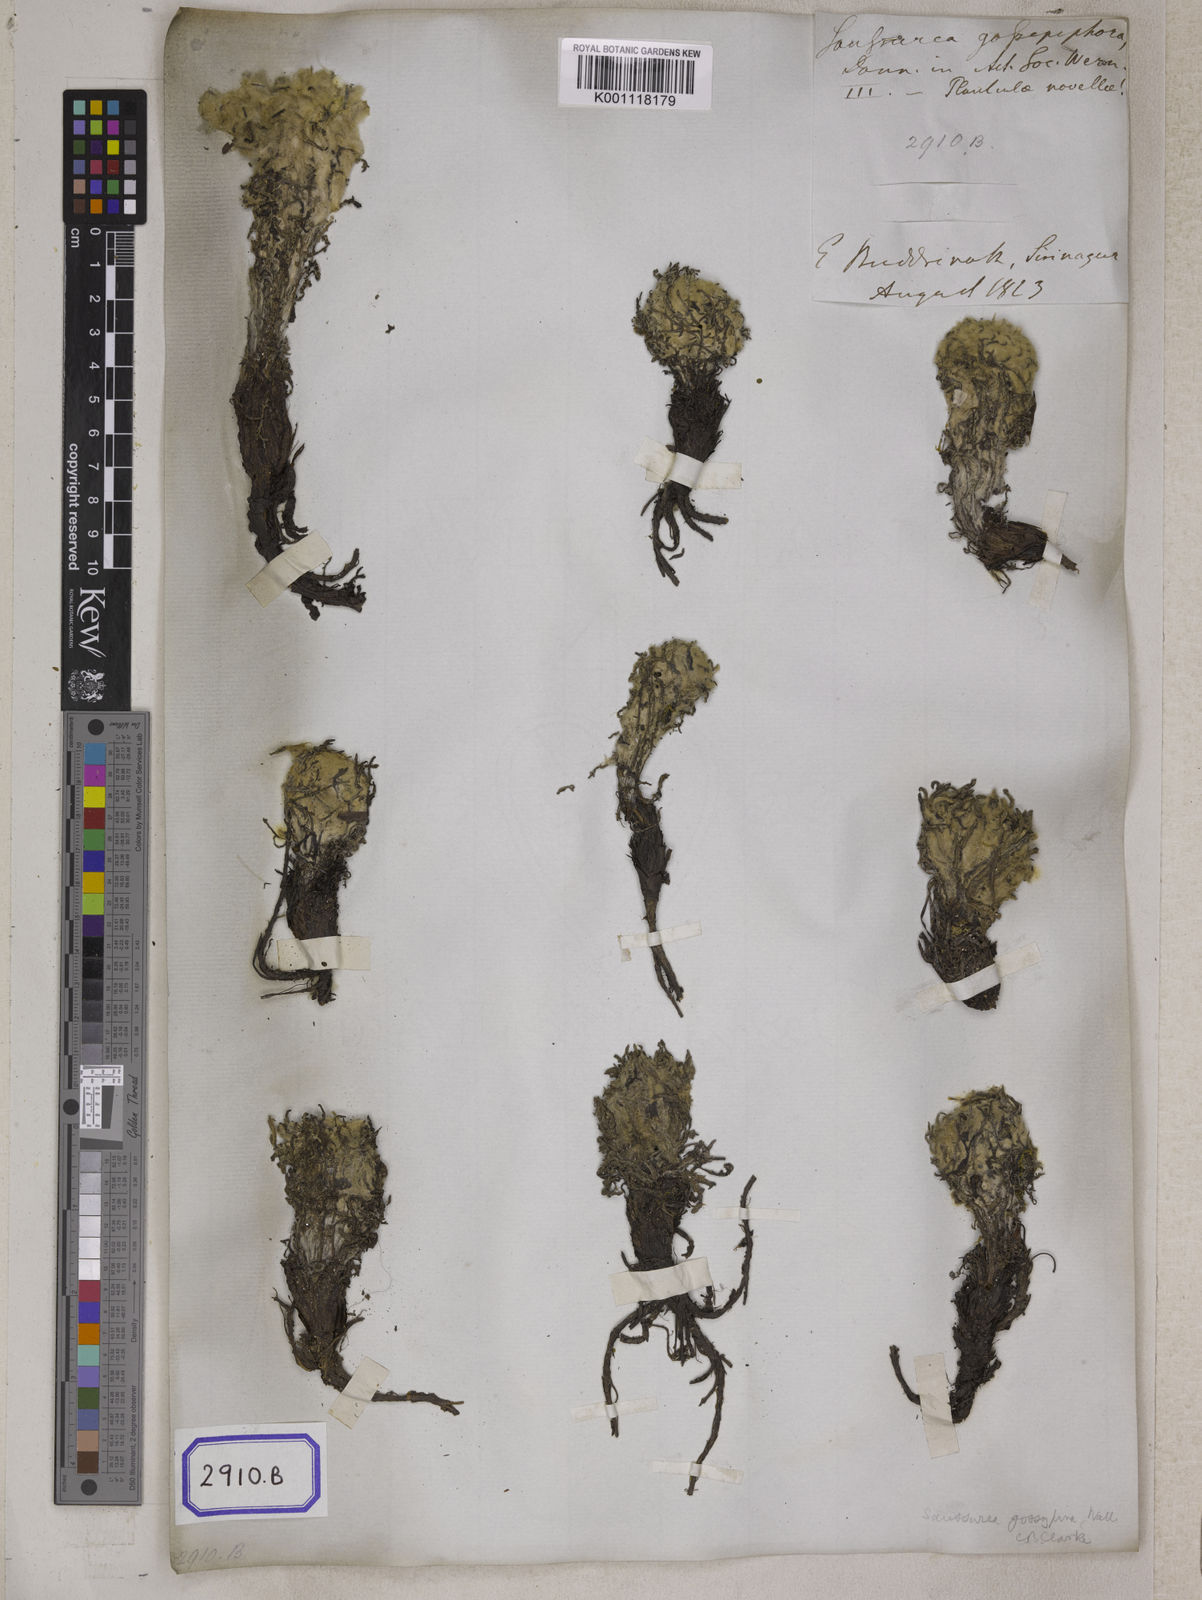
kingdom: Plantae
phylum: Tracheophyta
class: Magnoliopsida
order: Asterales
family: Asteraceae
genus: Saussurea
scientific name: Saussurea laniceps
